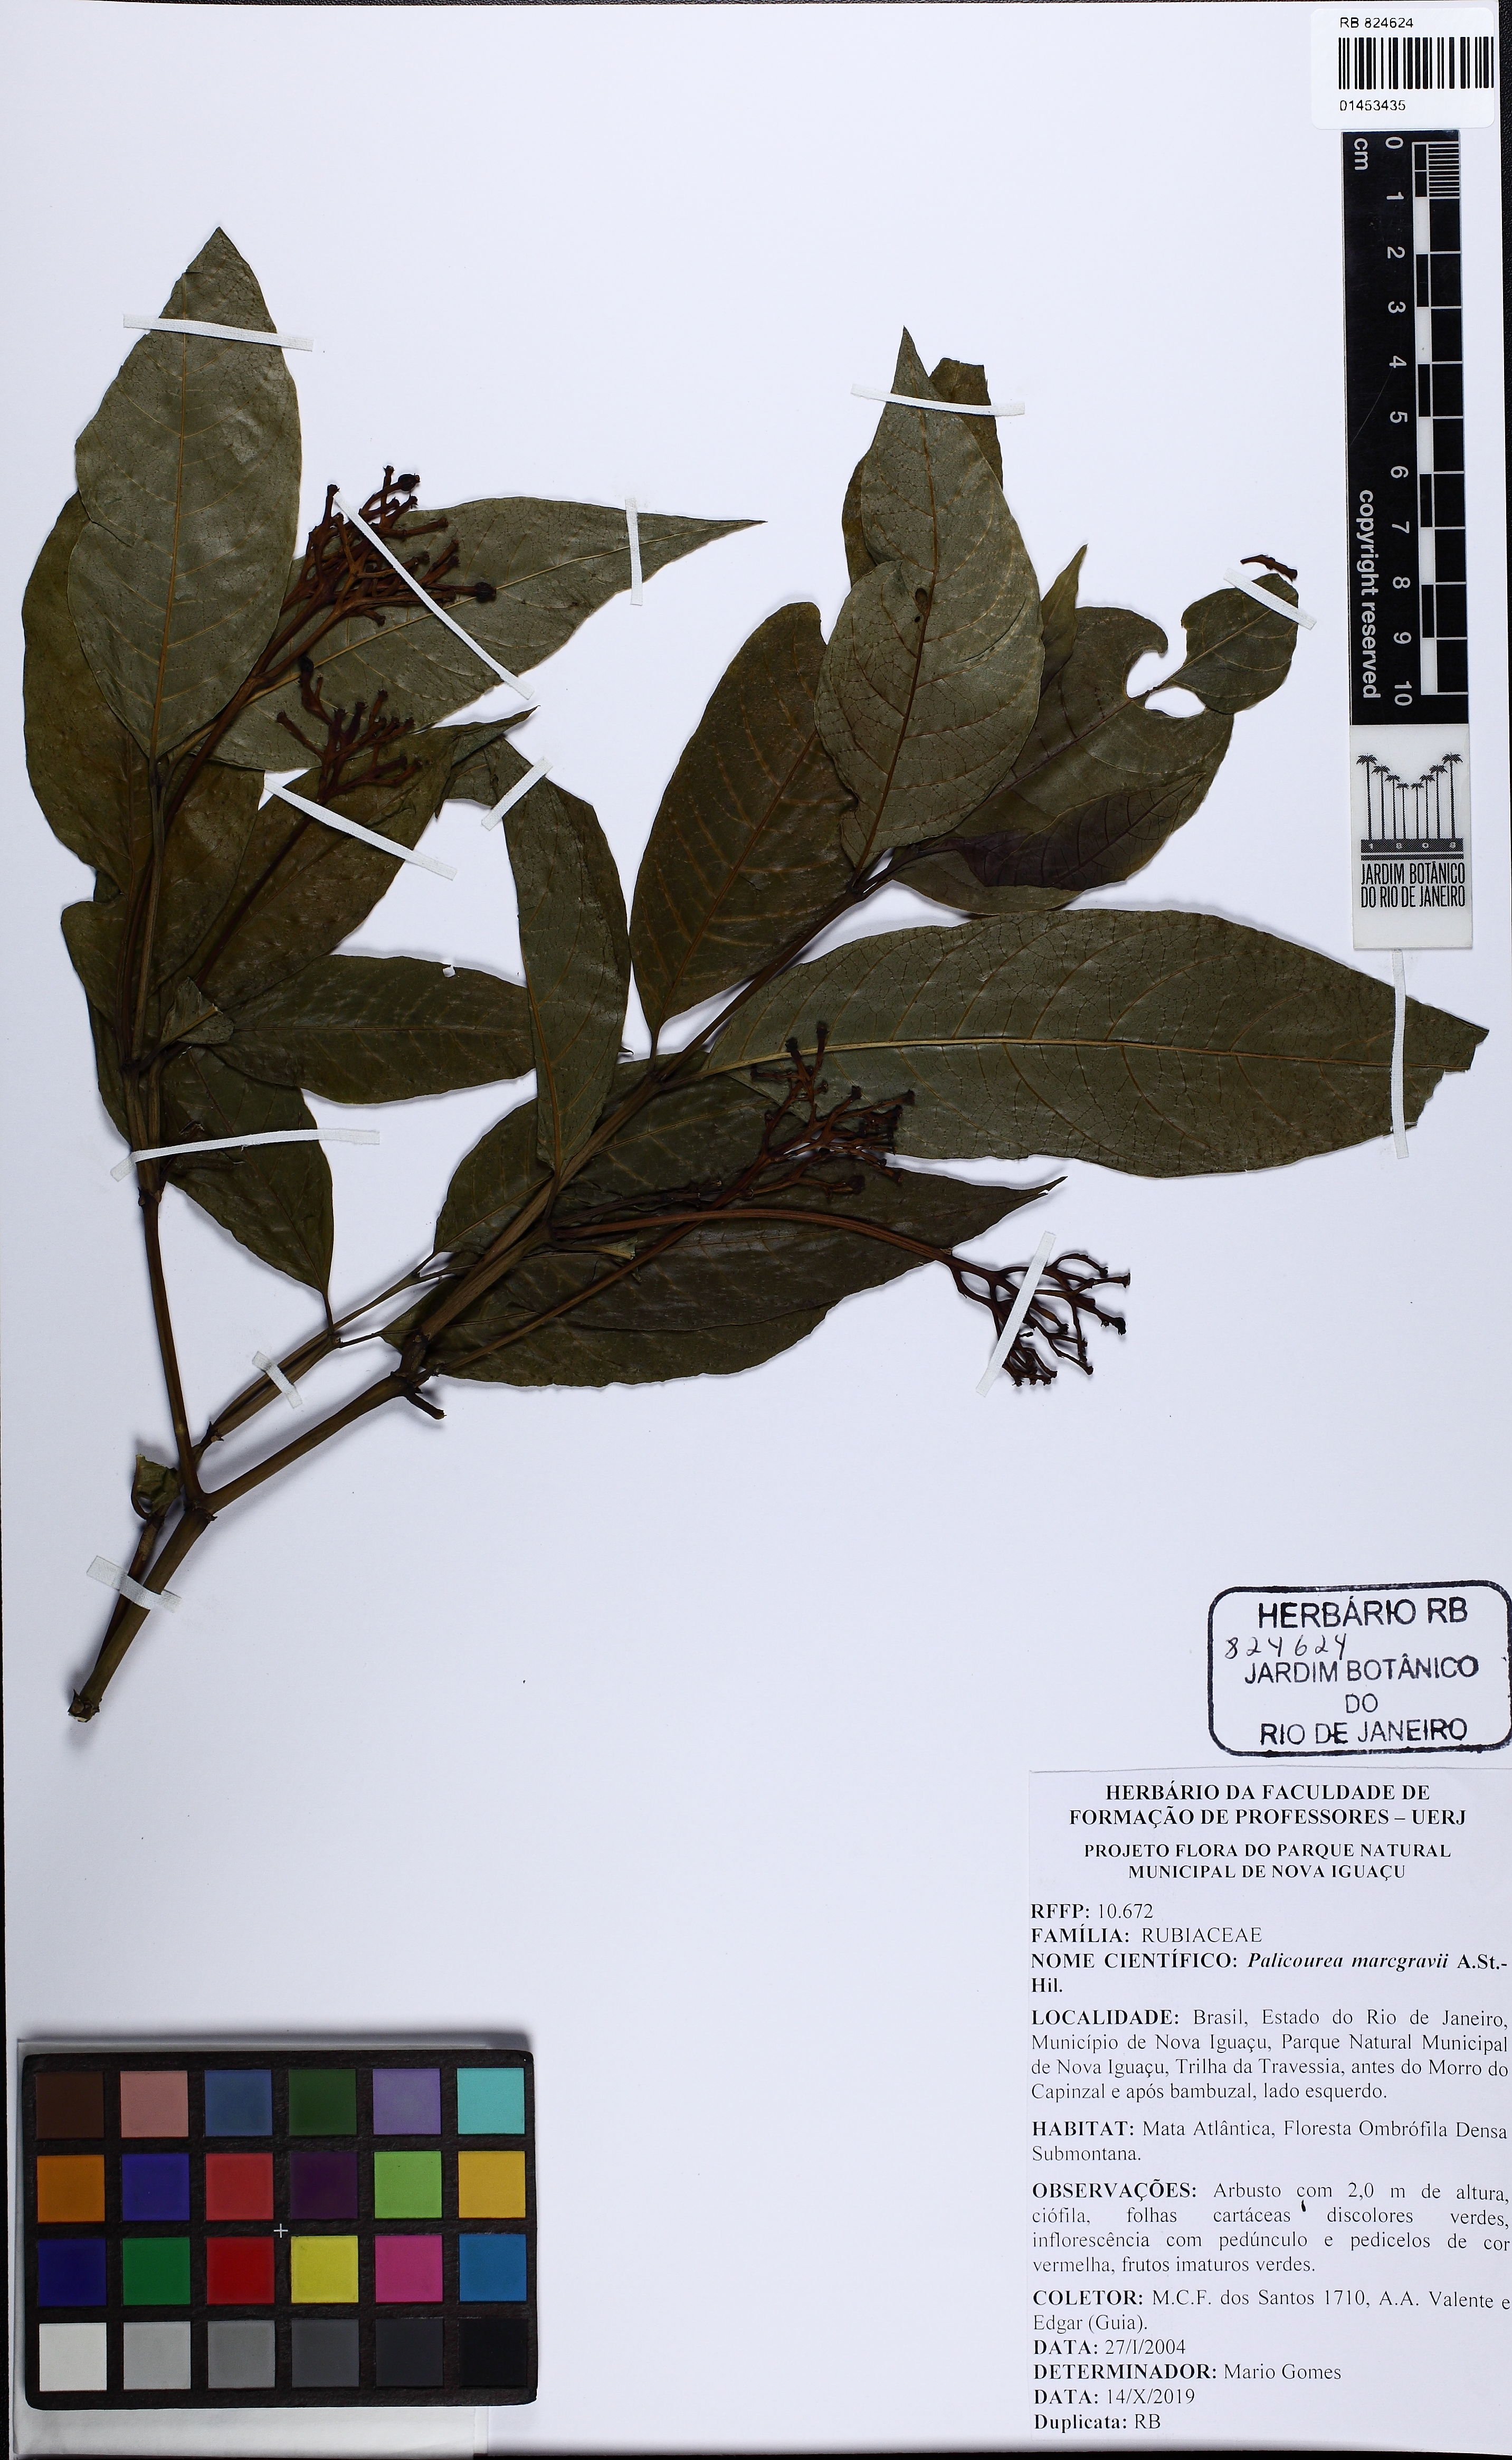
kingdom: Plantae
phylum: Tracheophyta
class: Magnoliopsida
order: Gentianales
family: Rubiaceae
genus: Palicourea
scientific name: Palicourea marcgravii
